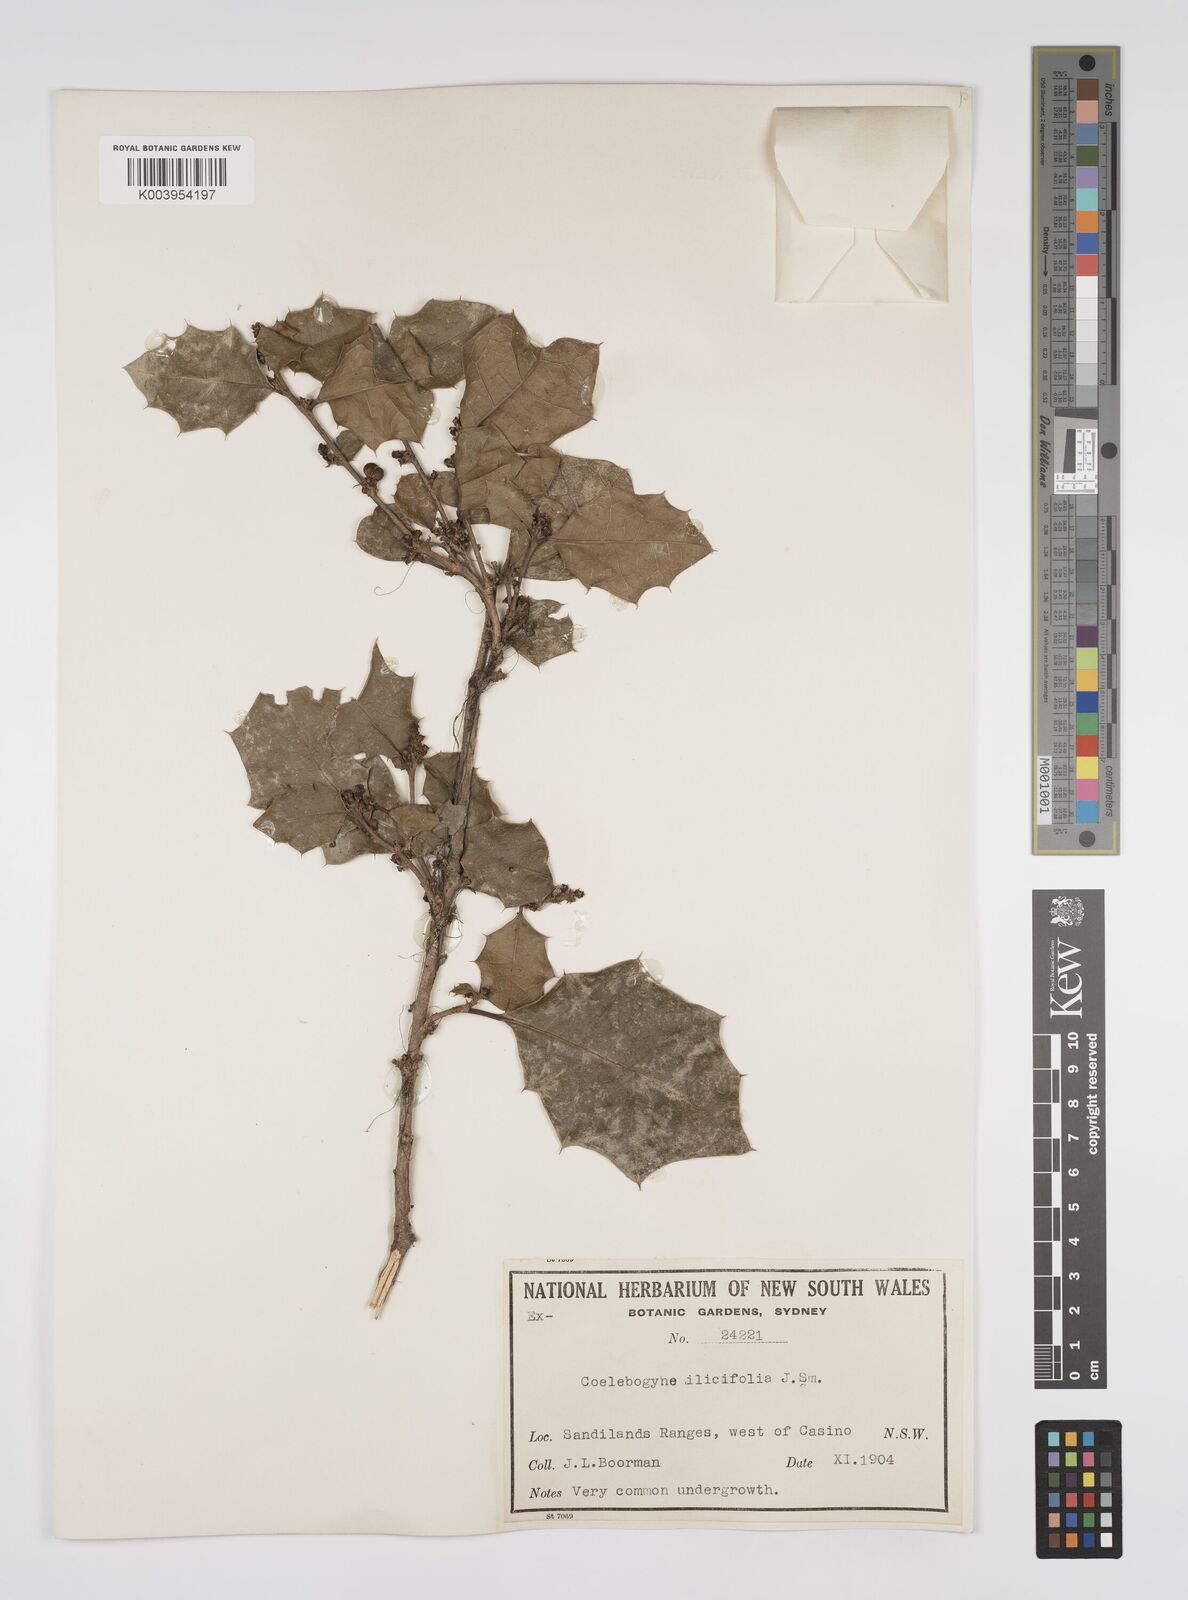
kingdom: Plantae
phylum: Tracheophyta
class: Magnoliopsida
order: Malpighiales
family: Euphorbiaceae
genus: Alchornea
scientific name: Alchornea ilicifolia
